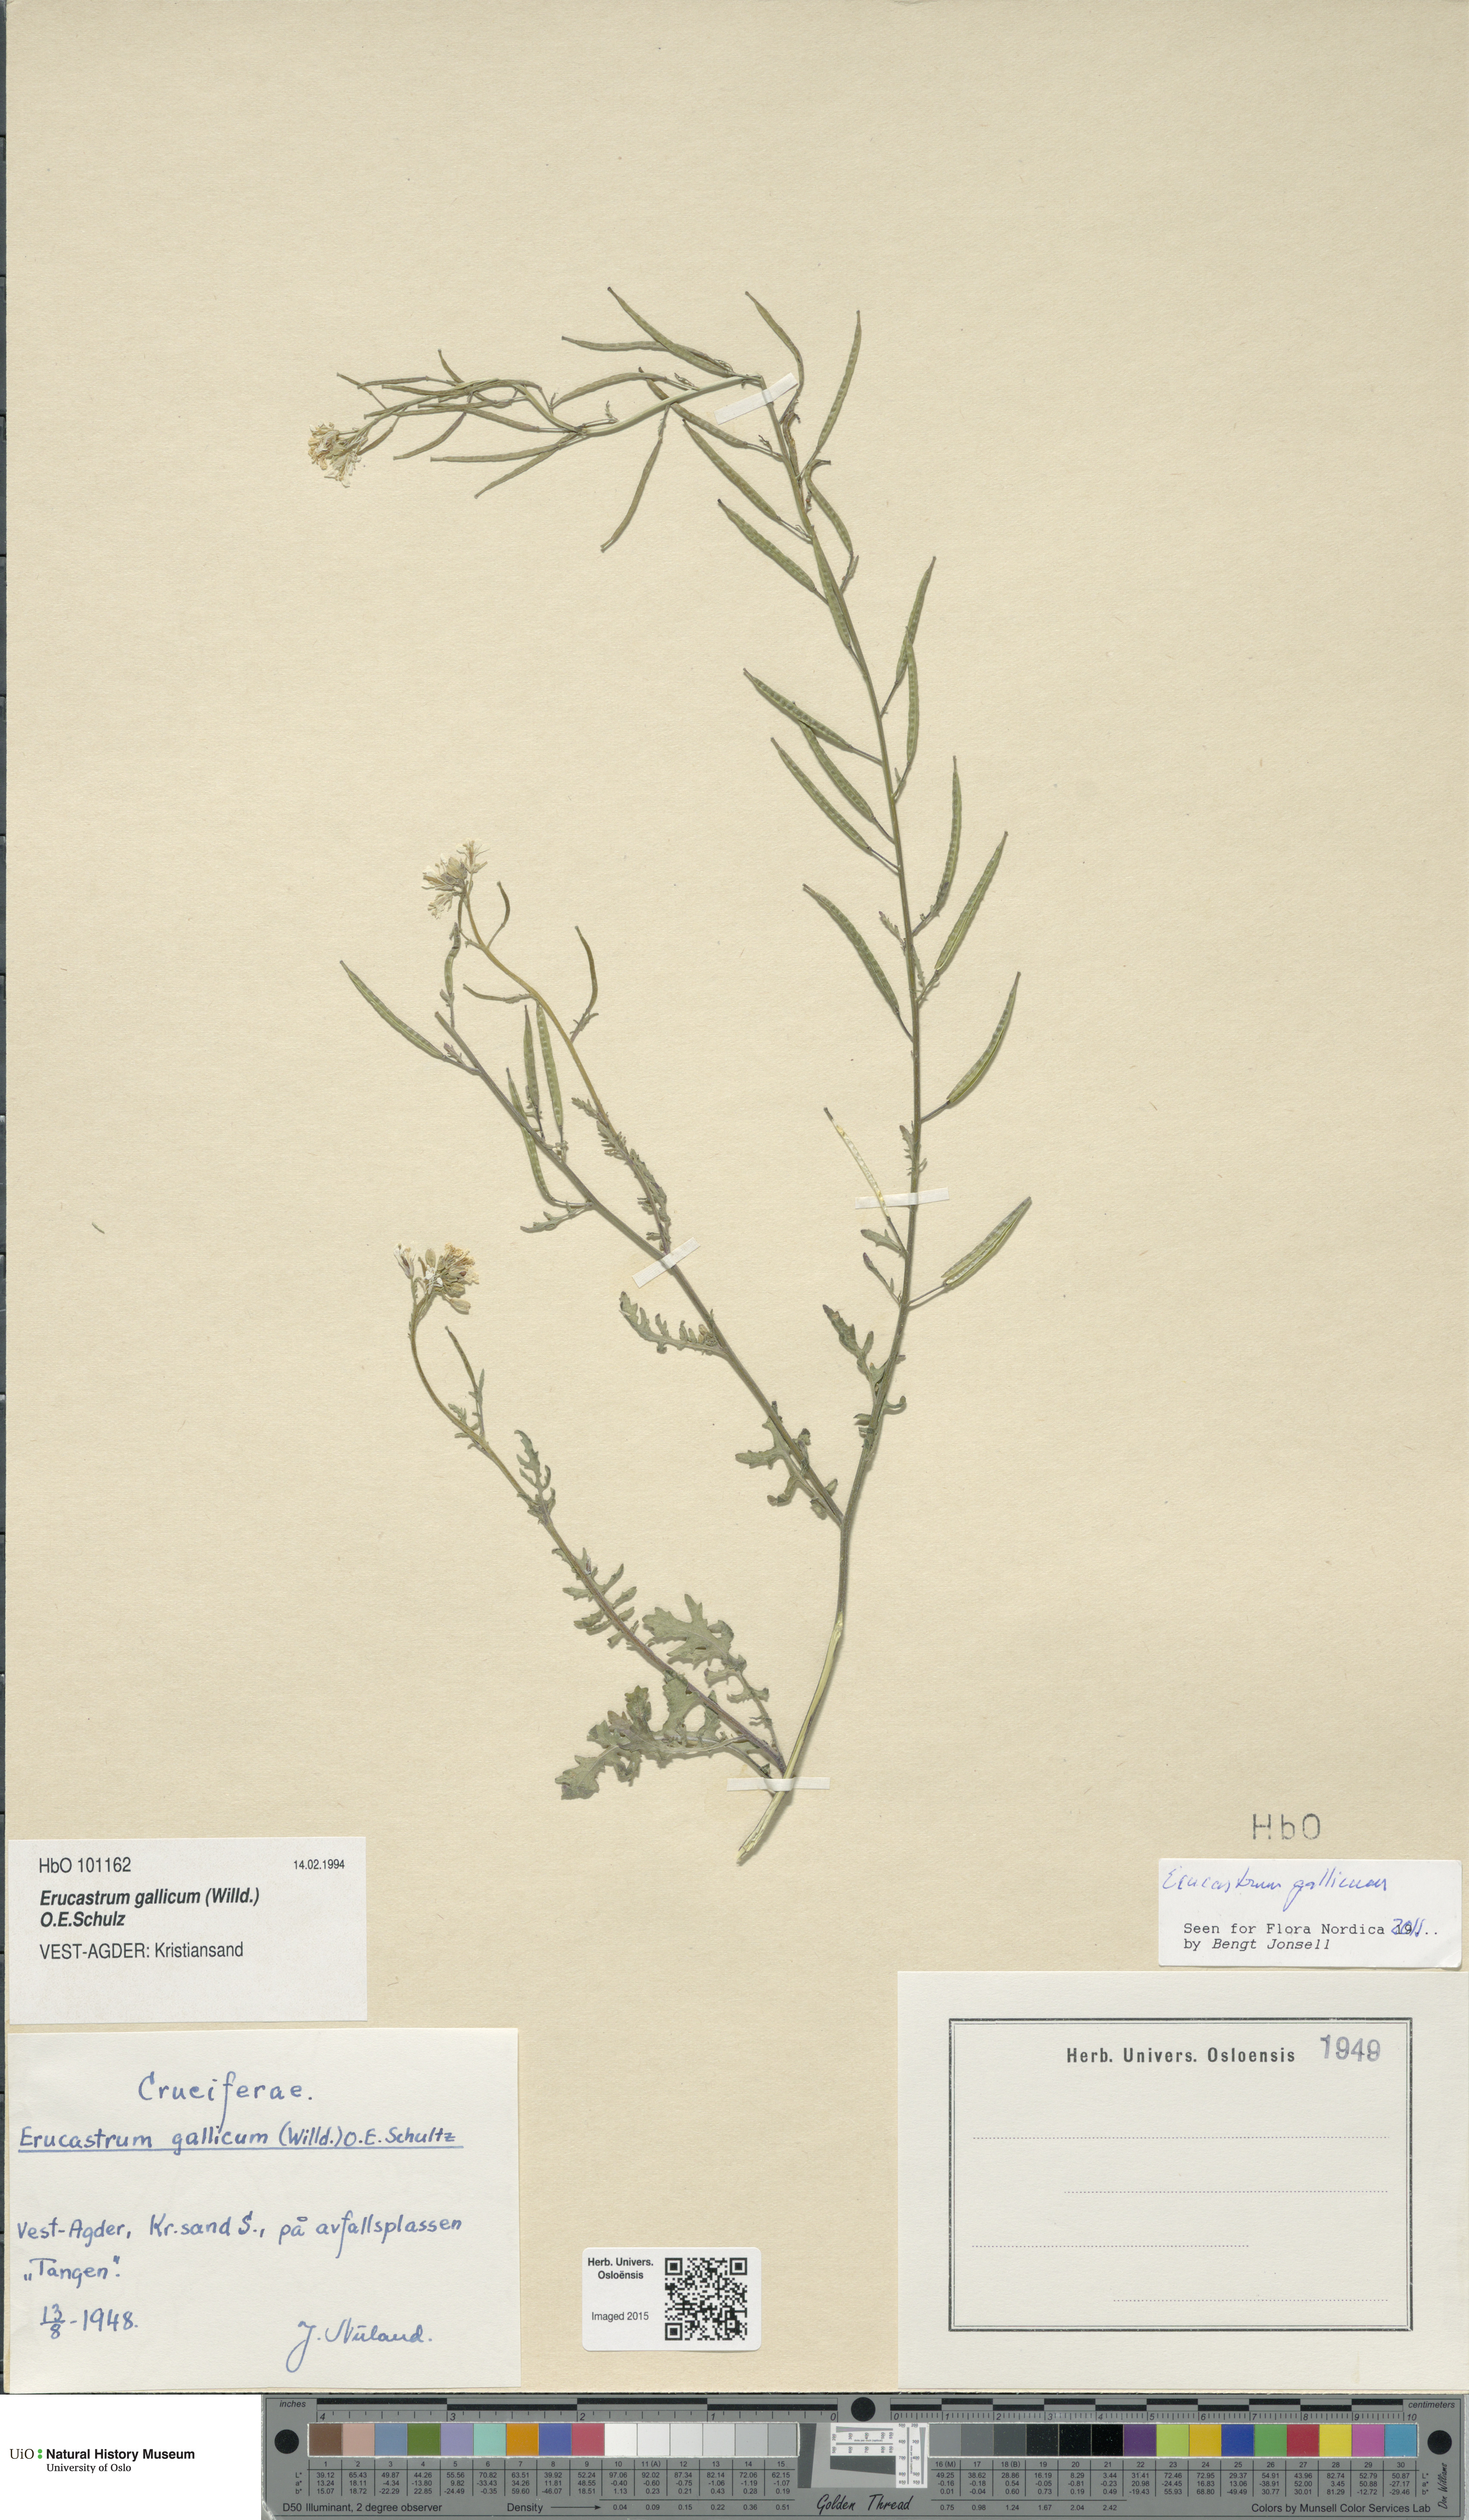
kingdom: Plantae
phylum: Tracheophyta
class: Magnoliopsida
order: Brassicales
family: Brassicaceae
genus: Erucastrum
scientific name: Erucastrum gallicum
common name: Hairy rocket
